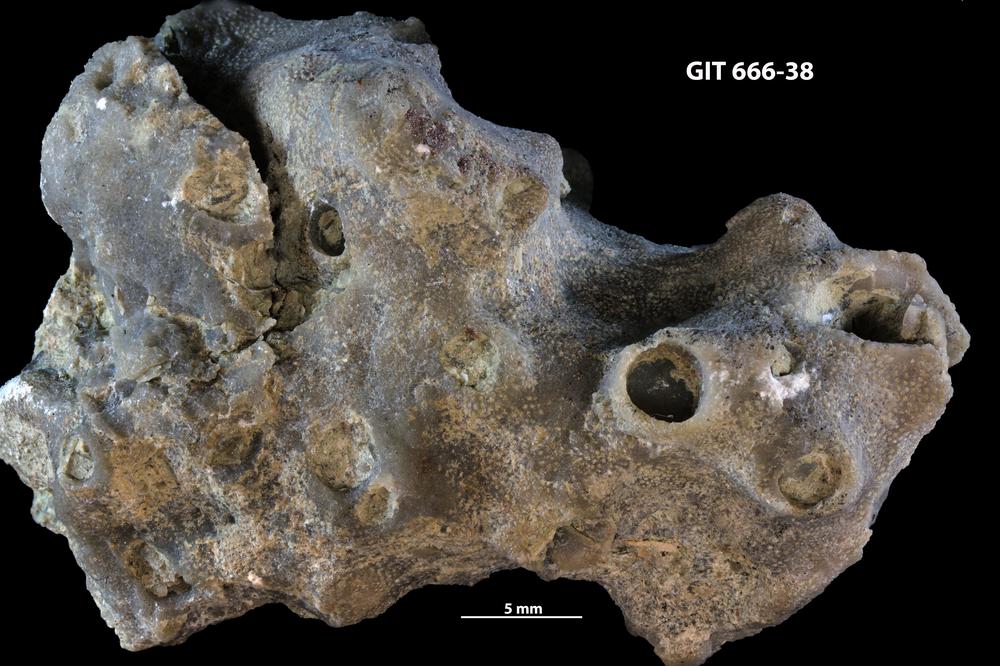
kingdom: Animalia
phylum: Bryozoa
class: Stenolaemata
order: Cystoporida
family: Fistuliporidae
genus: Fistulipora
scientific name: Fistulipora przhidolensis
